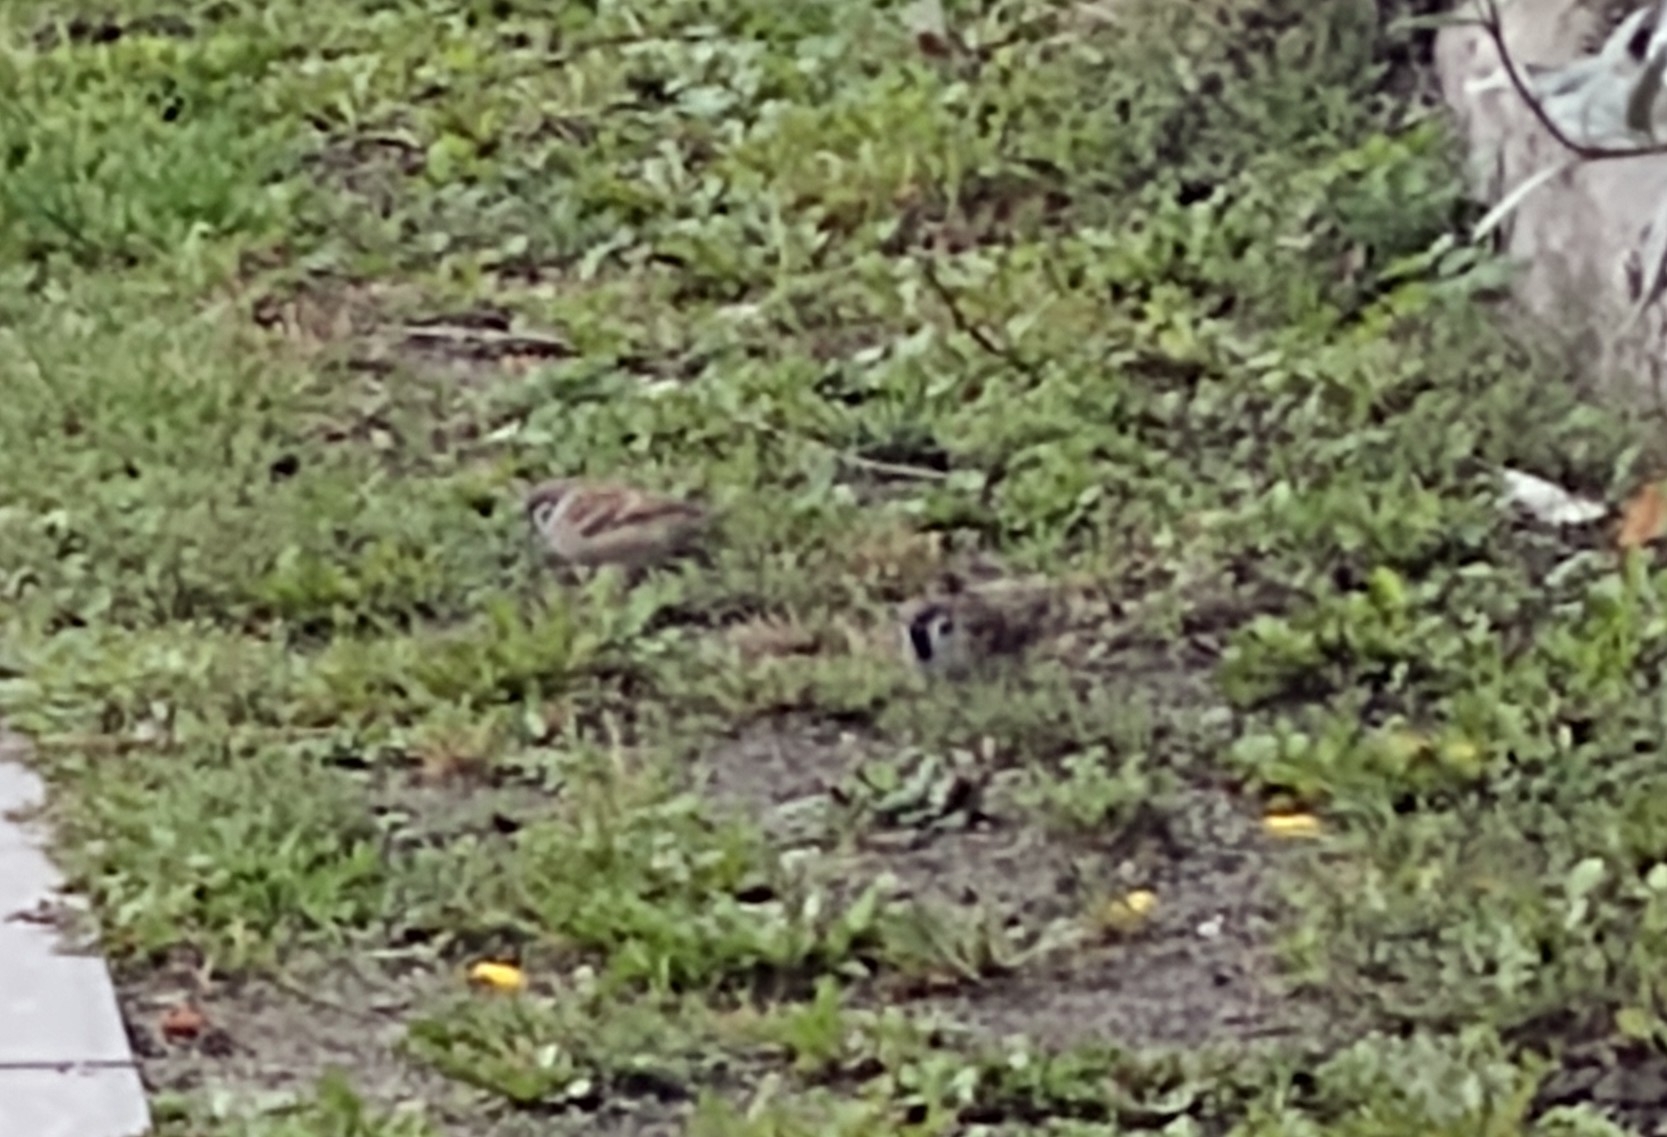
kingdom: Animalia
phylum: Chordata
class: Aves
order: Passeriformes
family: Passeridae
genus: Passer
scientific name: Passer montanus
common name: Skovspurv
